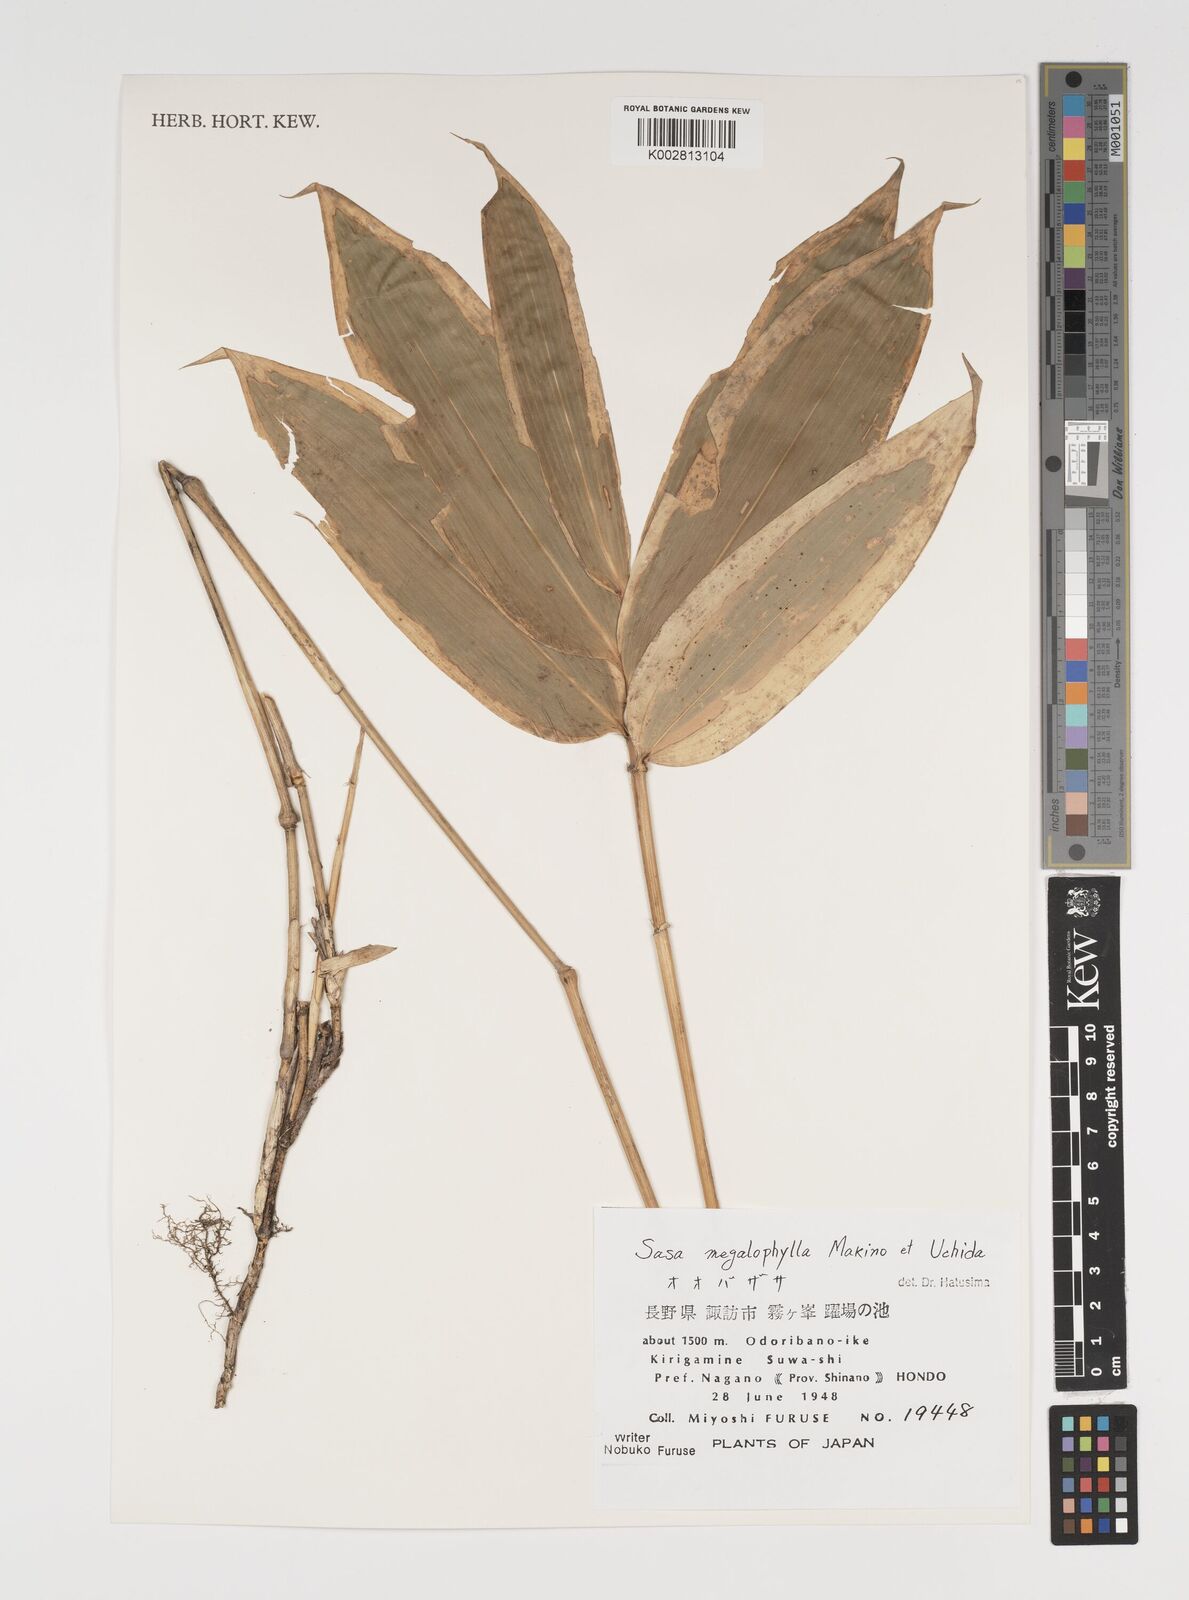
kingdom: Plantae
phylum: Tracheophyta
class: Liliopsida
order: Poales
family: Poaceae
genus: Sasa
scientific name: Sasa megalophylla
